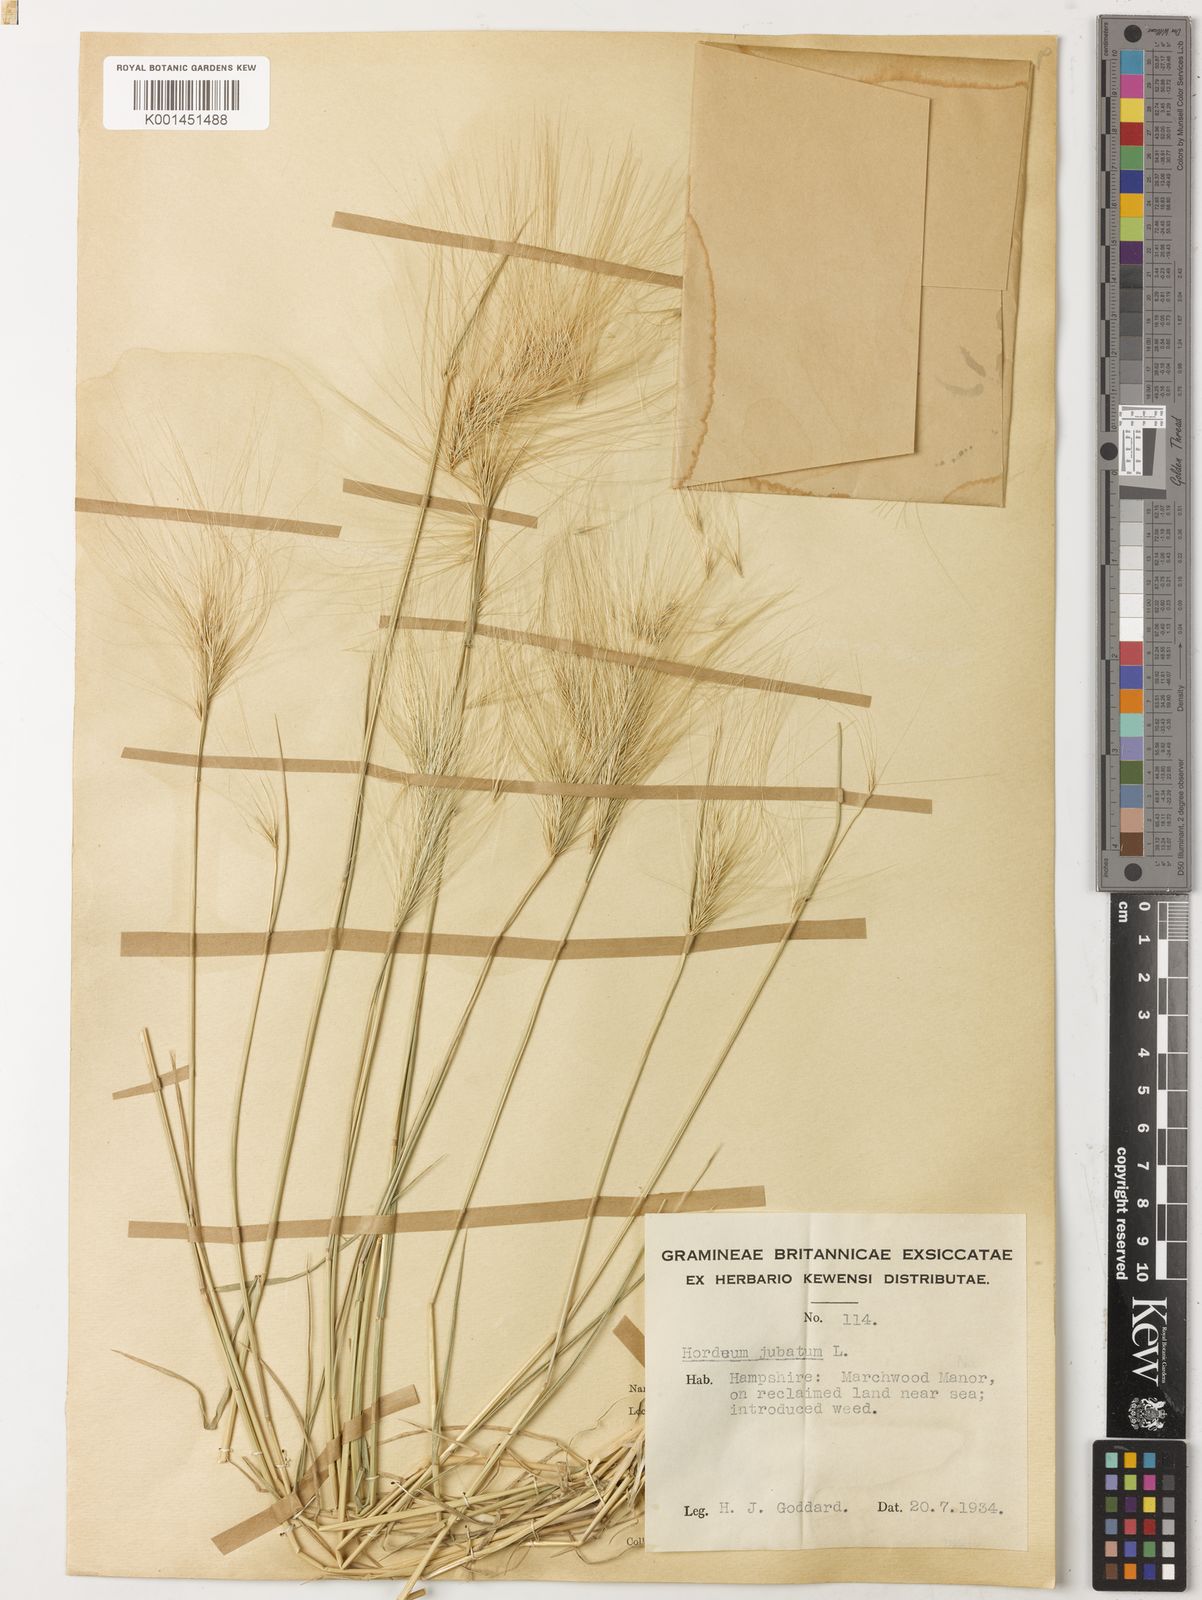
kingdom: Plantae
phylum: Tracheophyta
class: Liliopsida
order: Poales
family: Poaceae
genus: Hordeum
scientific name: Hordeum jubatum
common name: Foxtail barley
